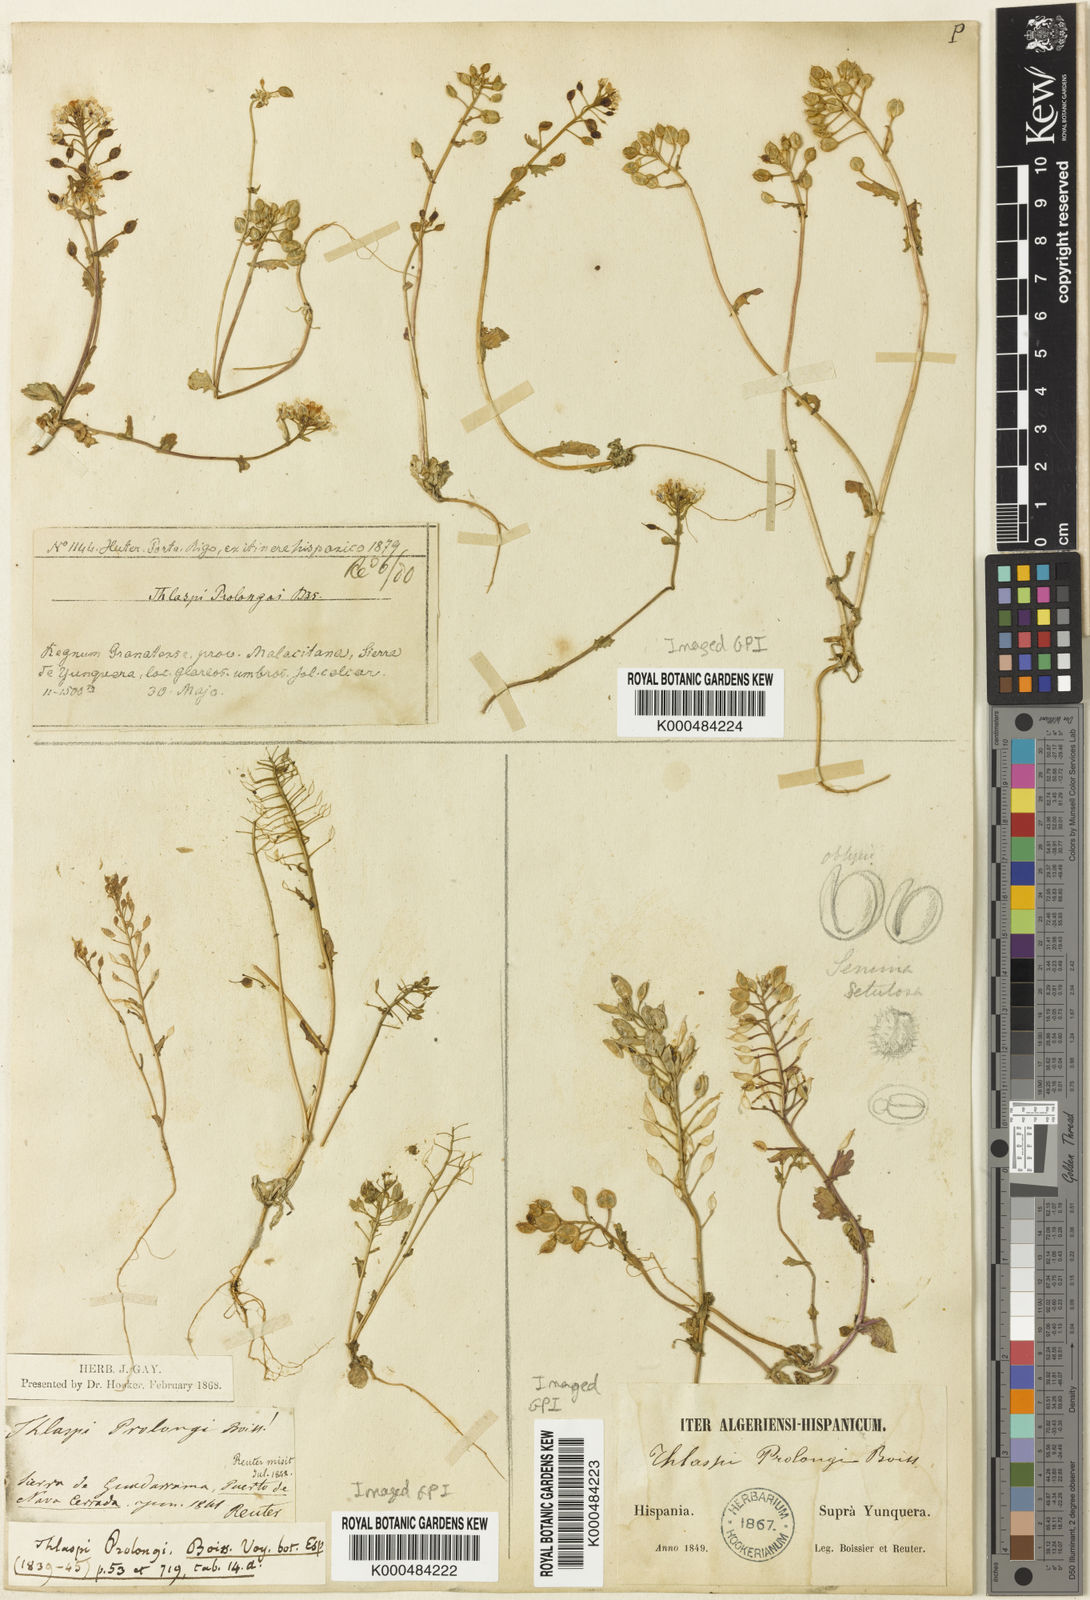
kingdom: Plantae
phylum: Tracheophyta
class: Magnoliopsida
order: Brassicales
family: Brassicaceae
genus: Noccaea
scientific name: Noccaea perfoliata
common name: Perfoliate pennycress
